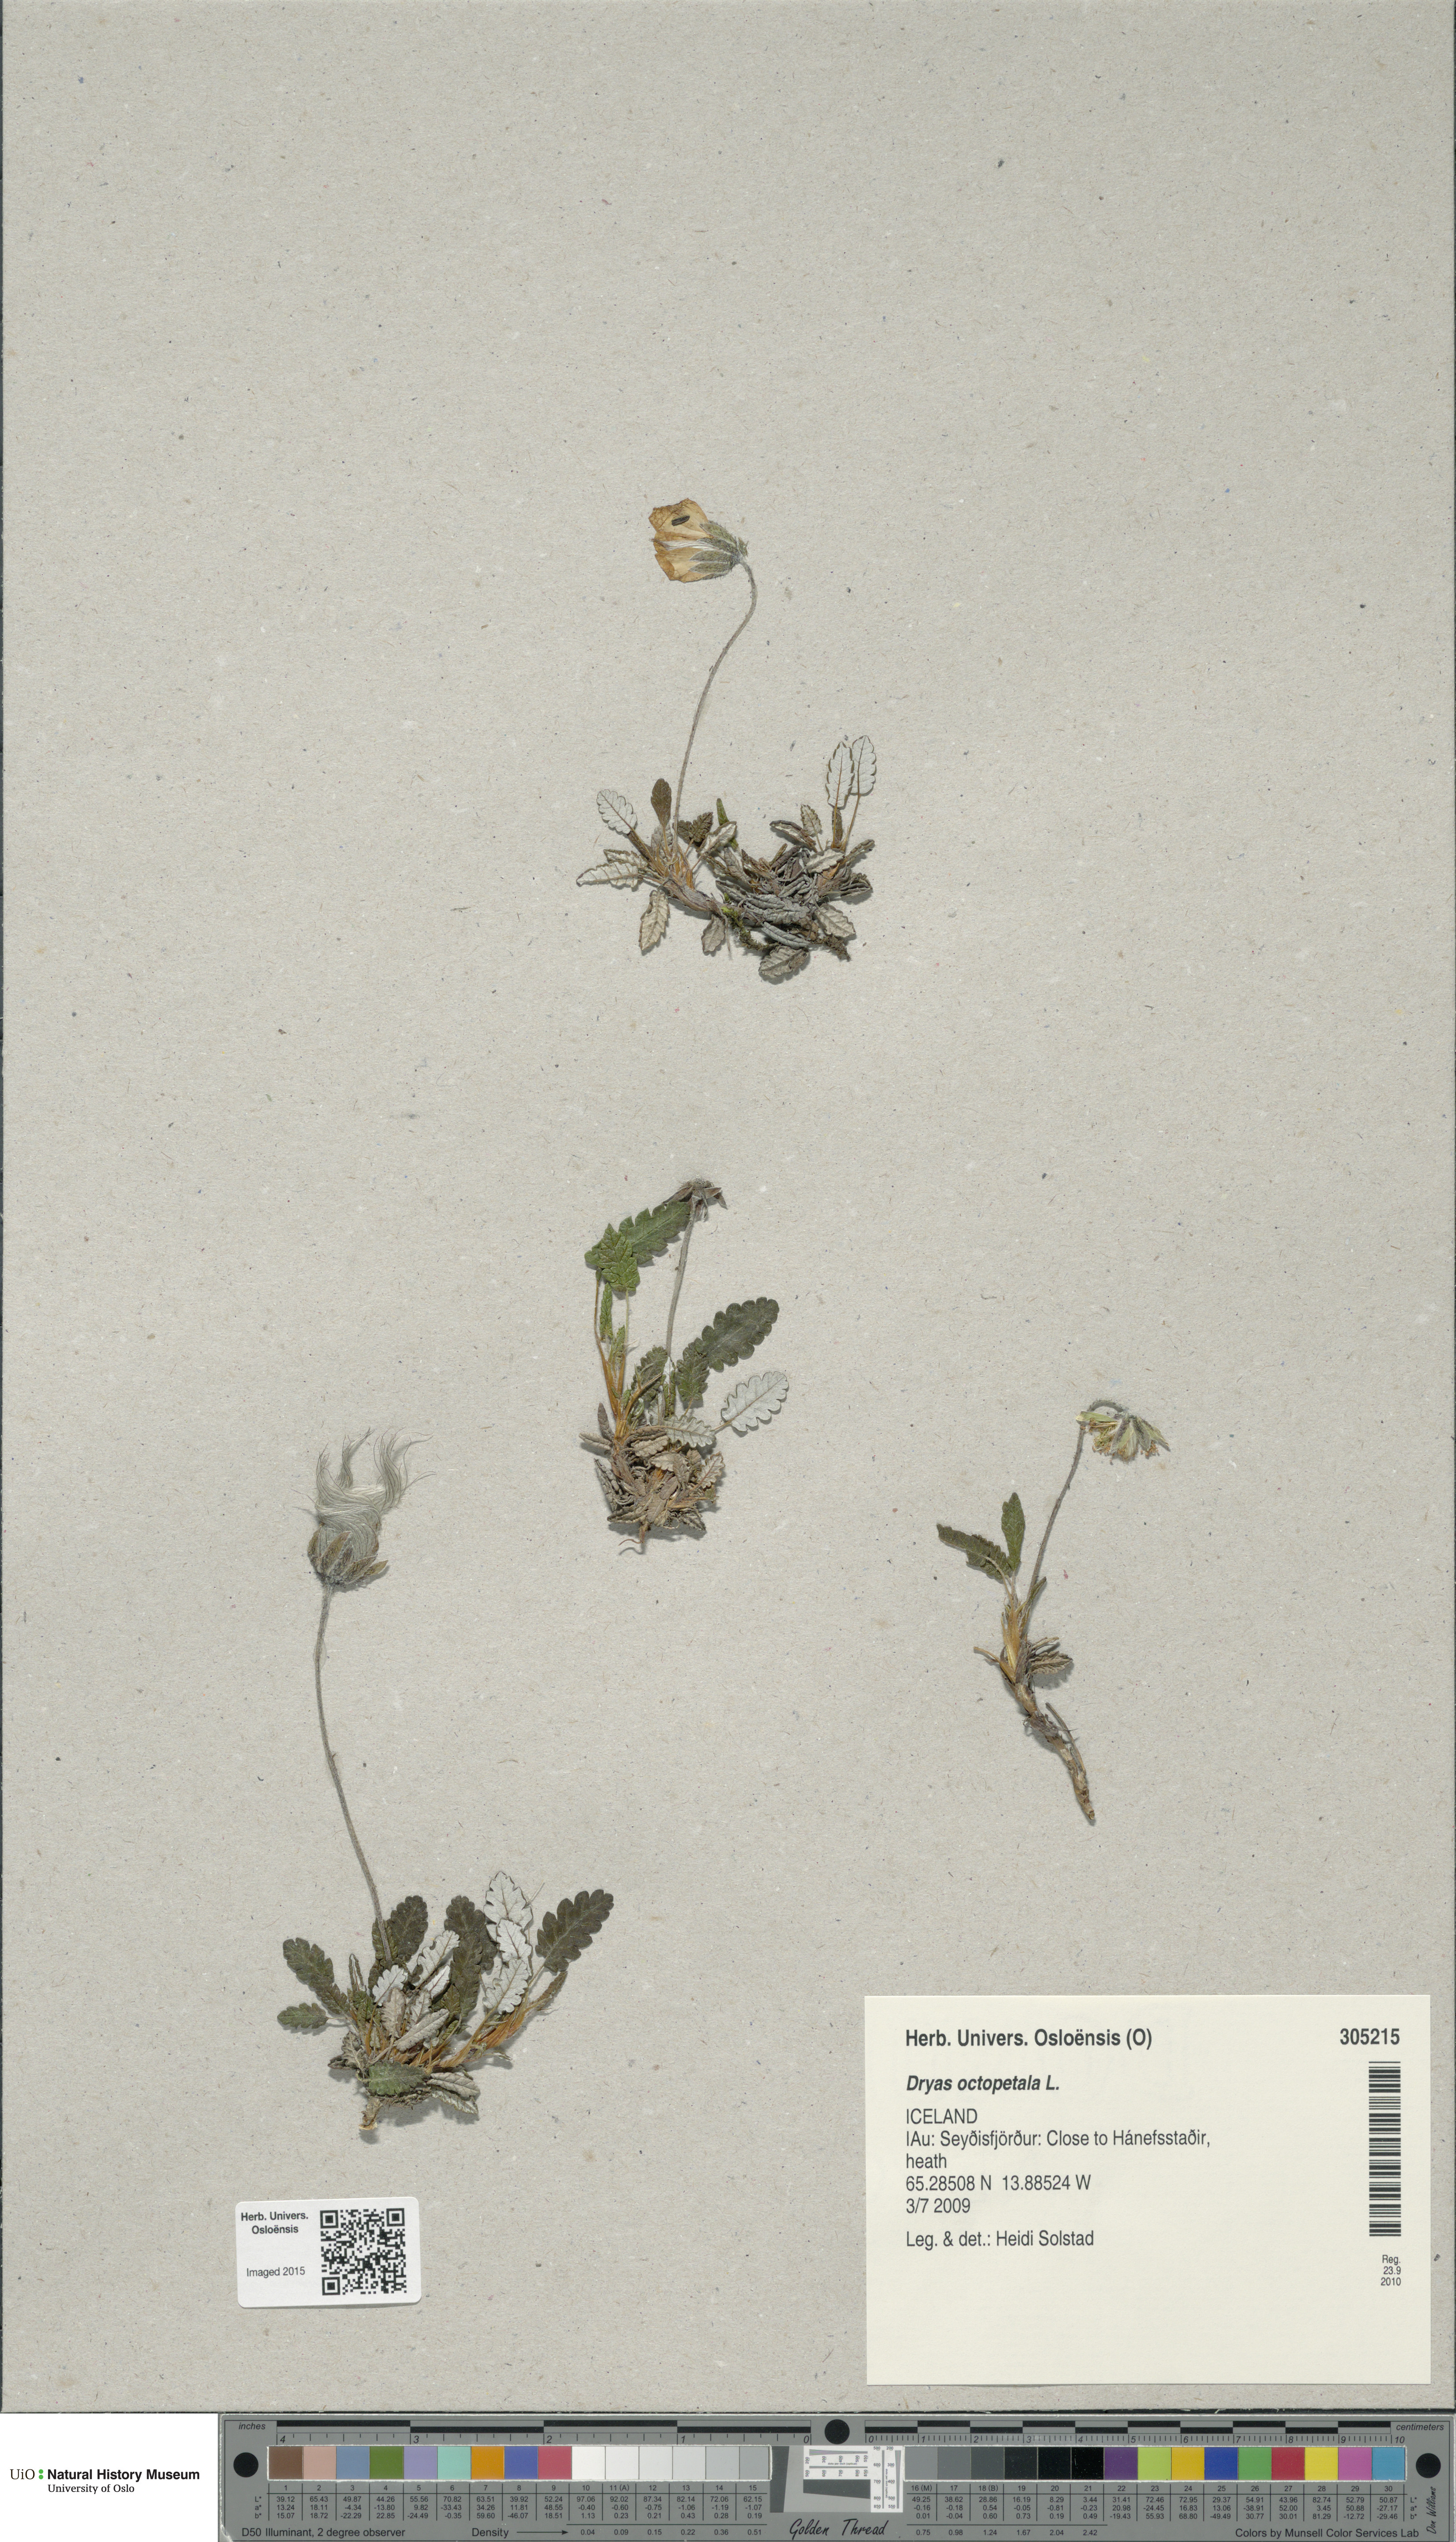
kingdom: Plantae
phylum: Tracheophyta
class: Magnoliopsida
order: Rosales
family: Rosaceae
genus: Dryas
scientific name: Dryas octopetala
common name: Eight-petal mountain-avens
